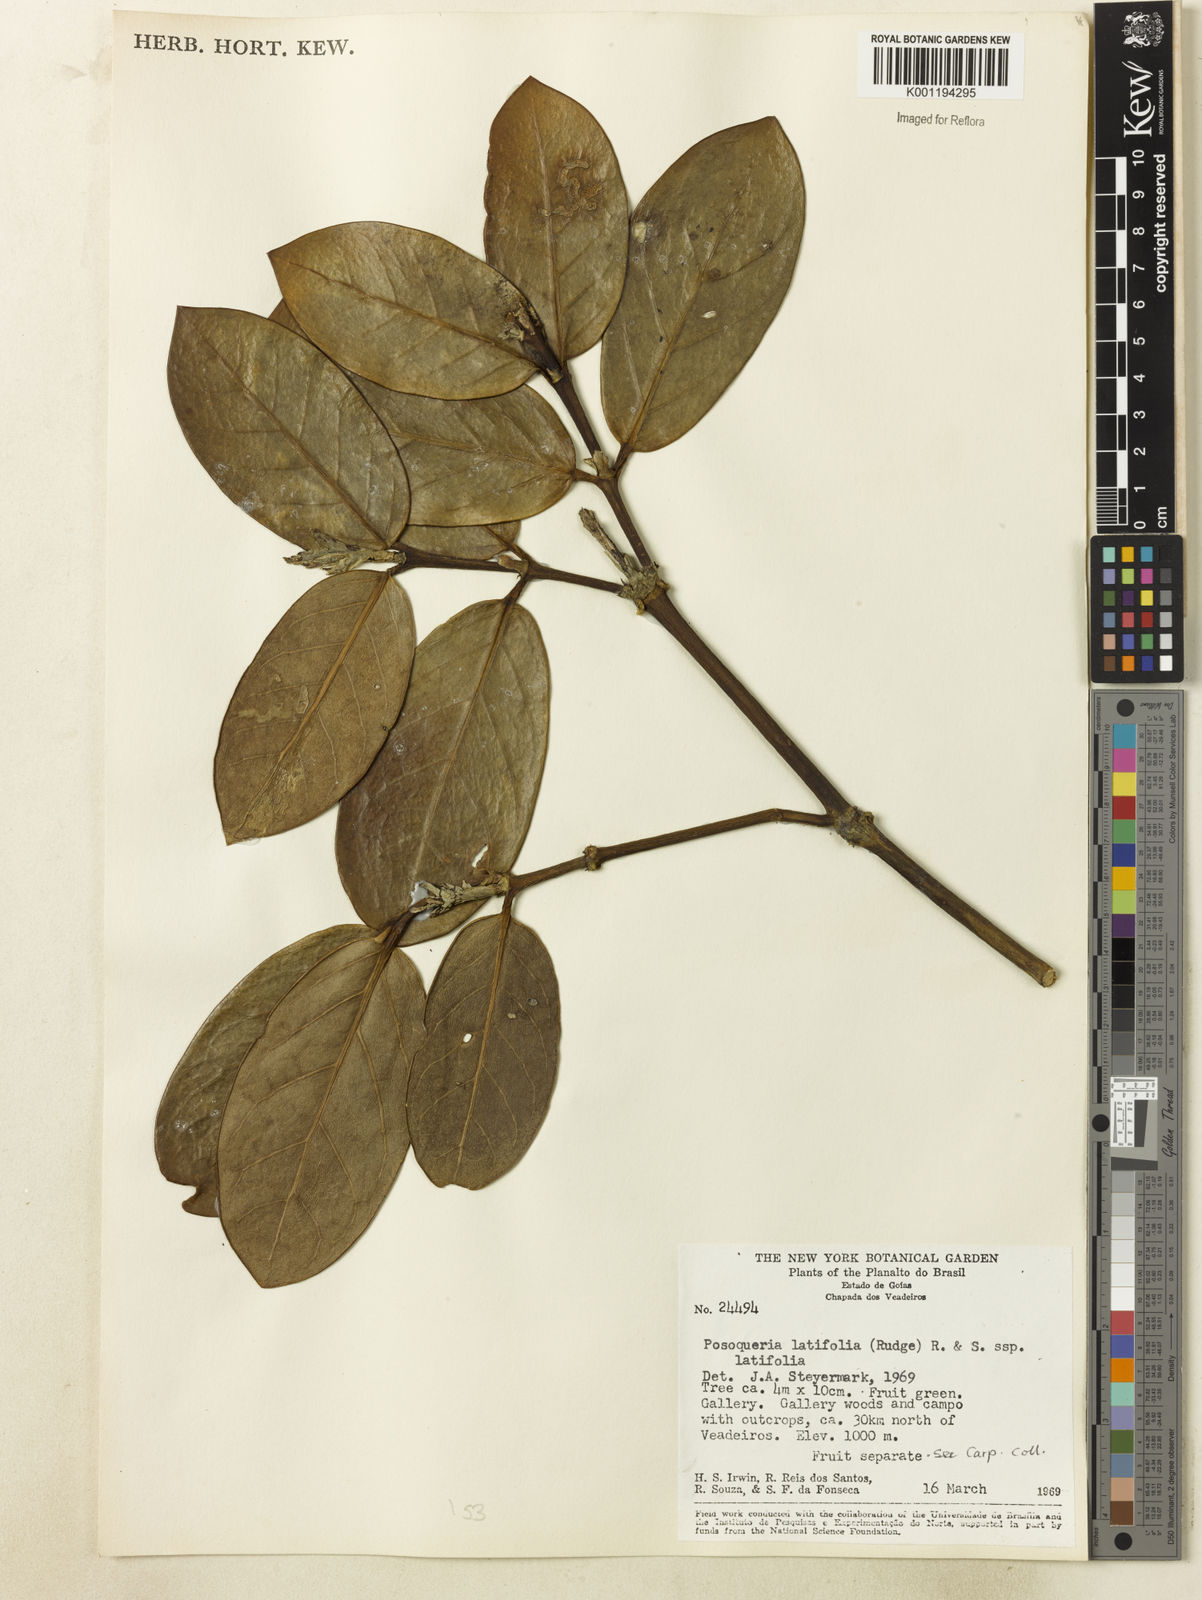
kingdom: Plantae
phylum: Tracheophyta
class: Magnoliopsida
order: Gentianales
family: Rubiaceae
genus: Posoqueria
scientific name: Posoqueria latifolia
